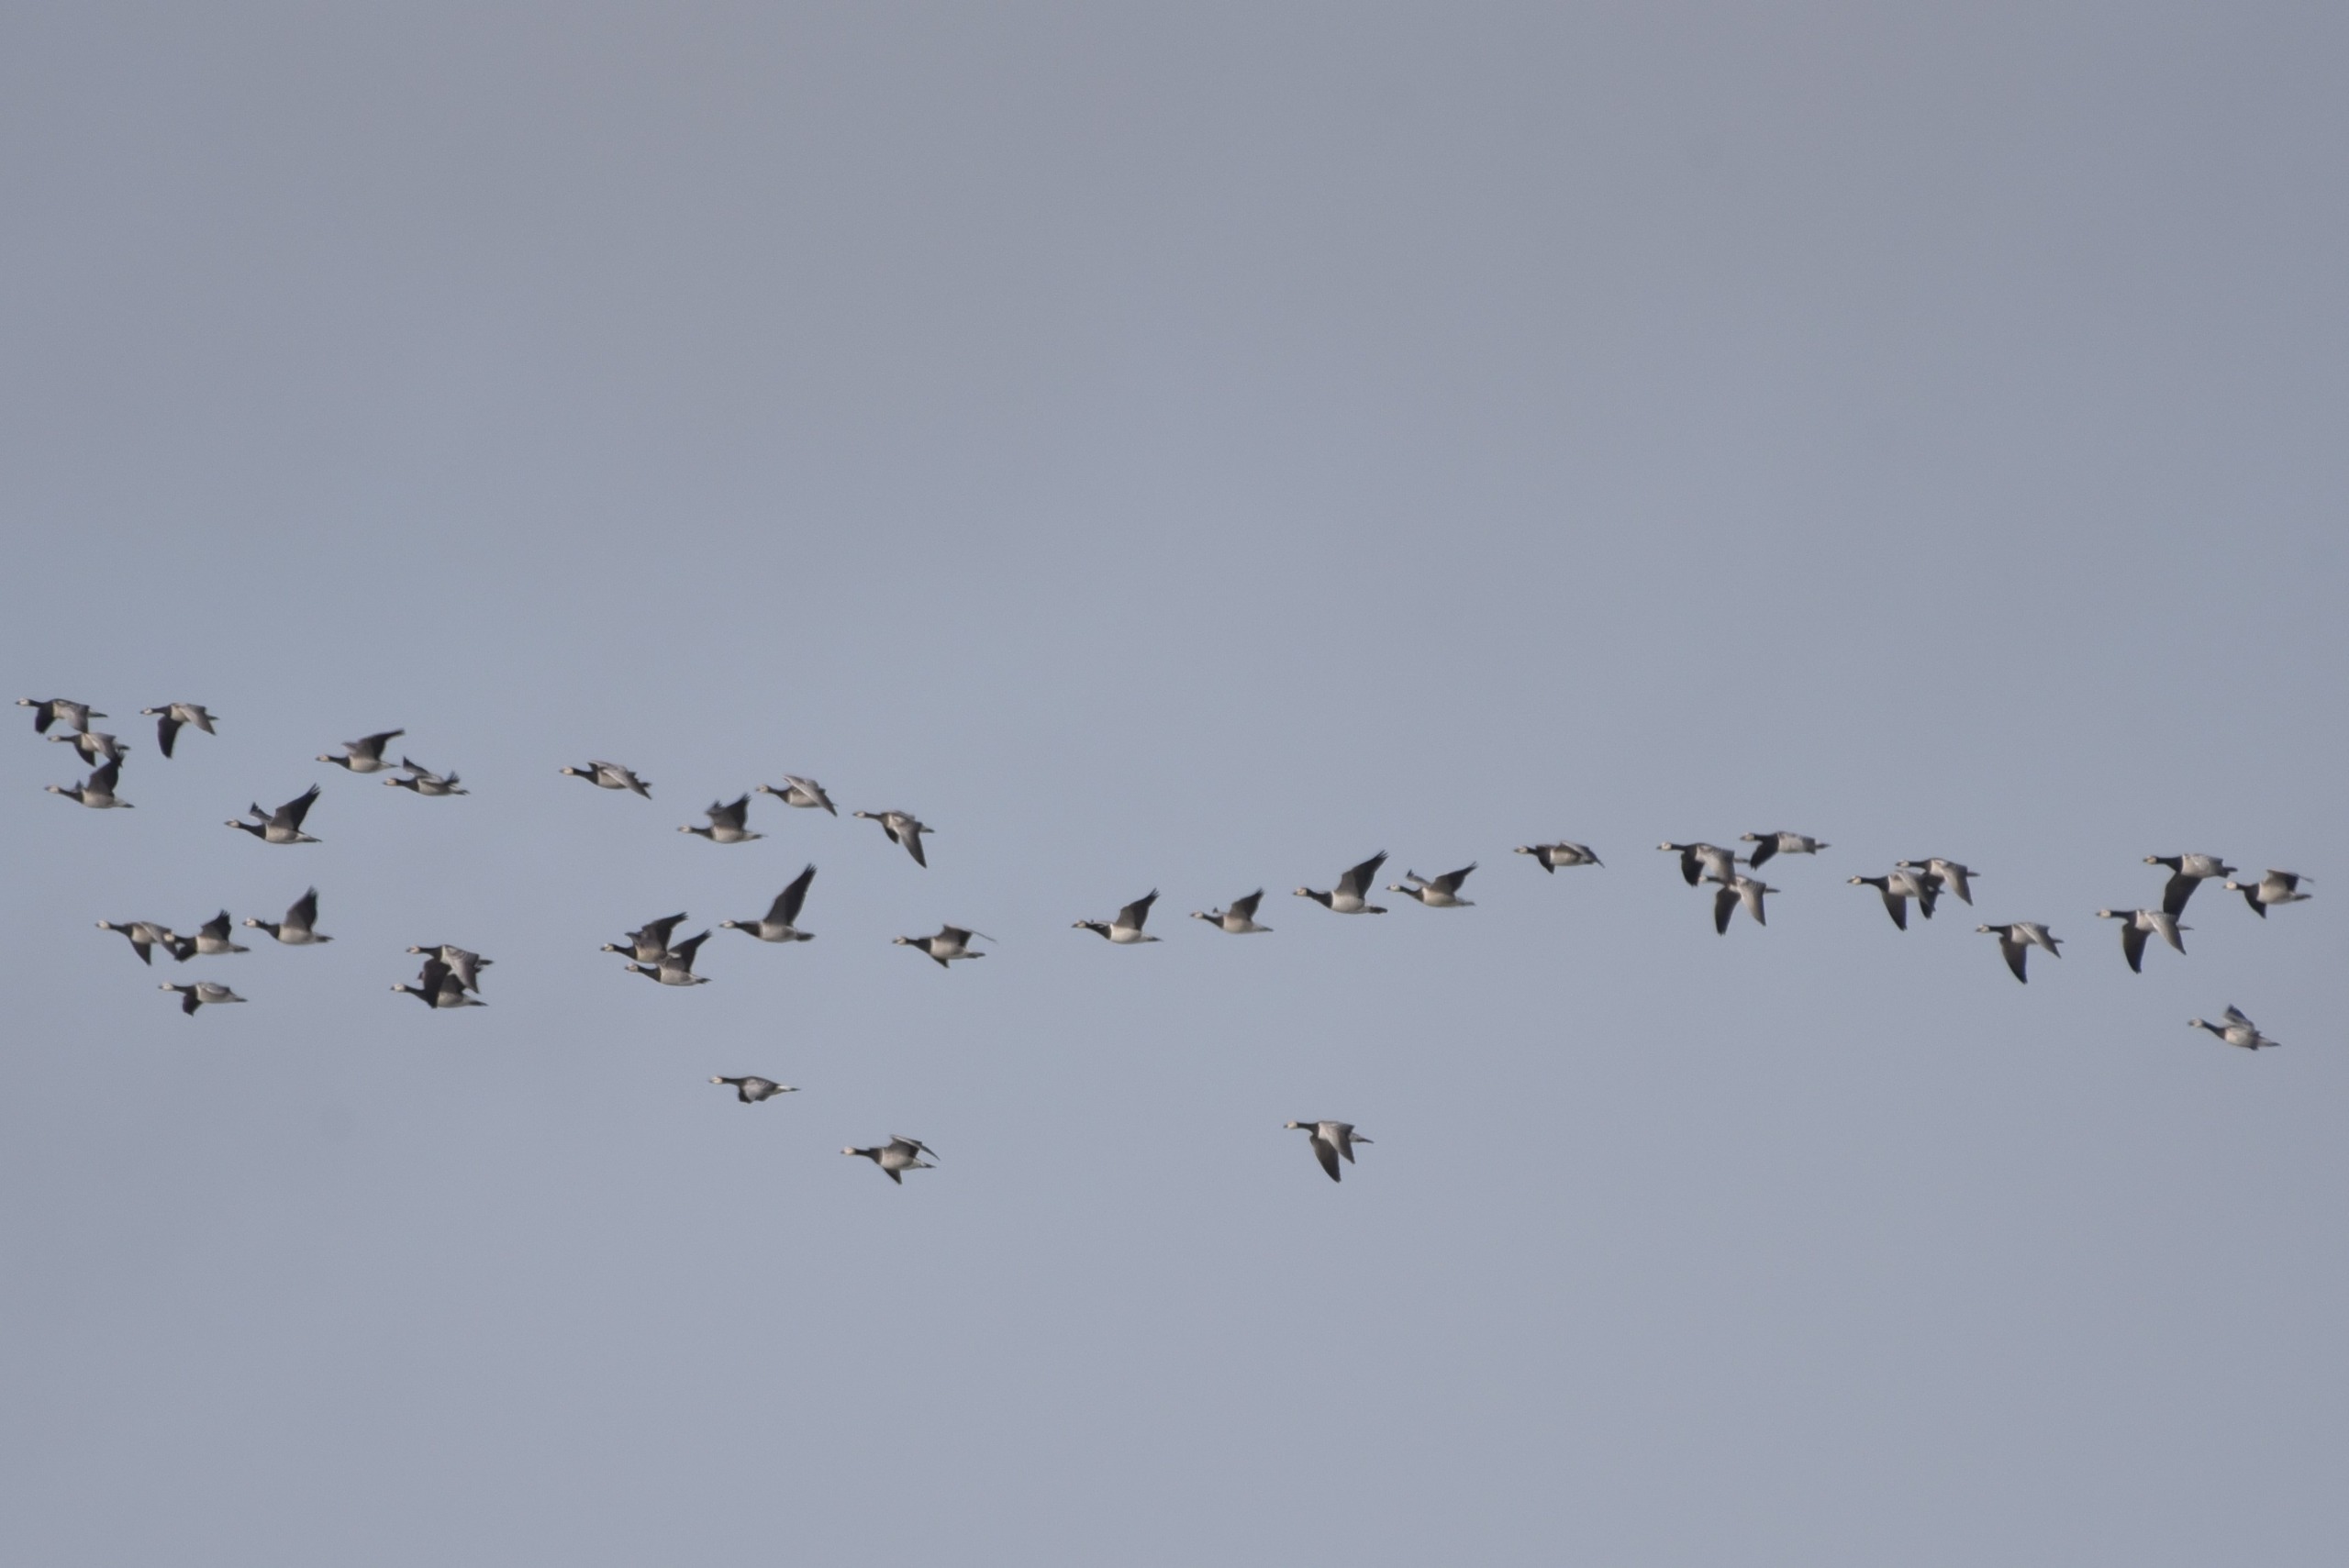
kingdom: Animalia
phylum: Chordata
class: Aves
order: Anseriformes
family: Anatidae
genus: Branta
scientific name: Branta leucopsis
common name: Bramgås
